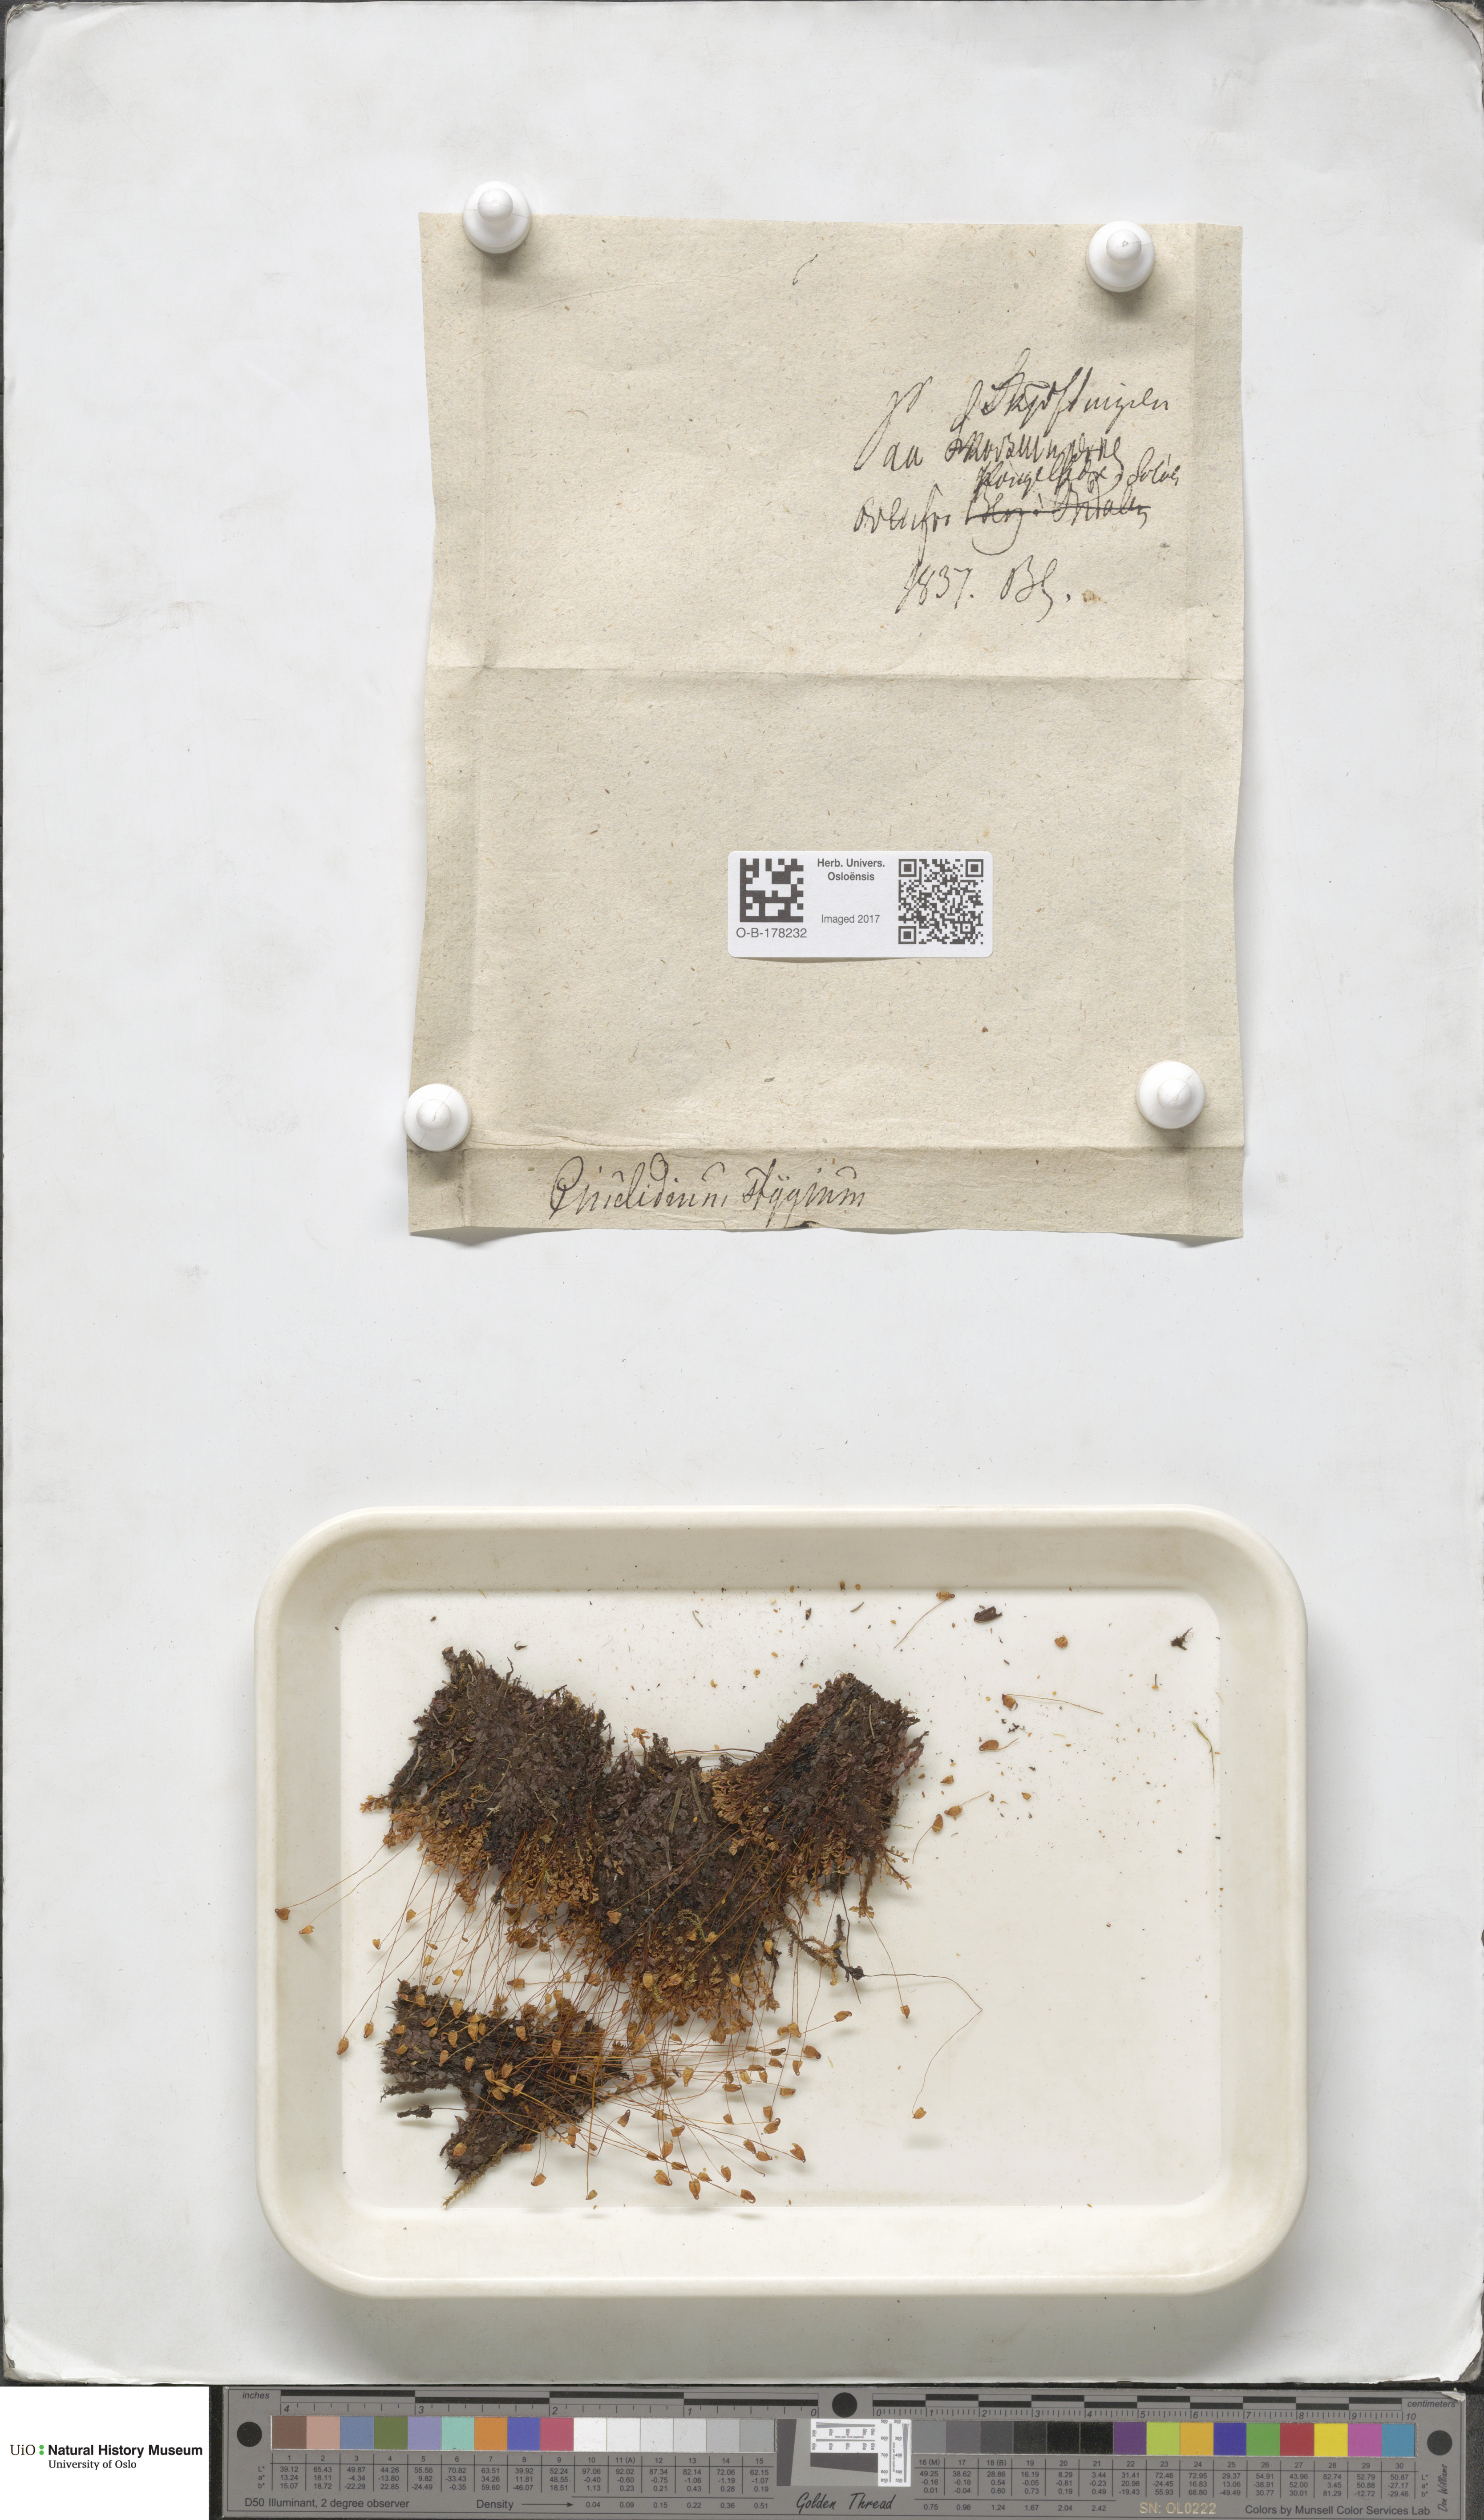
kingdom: Plantae
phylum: Bryophyta
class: Bryopsida
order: Bryales
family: Mniaceae
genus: Cinclidium
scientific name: Cinclidium stygium
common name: Sooty cupola moss
